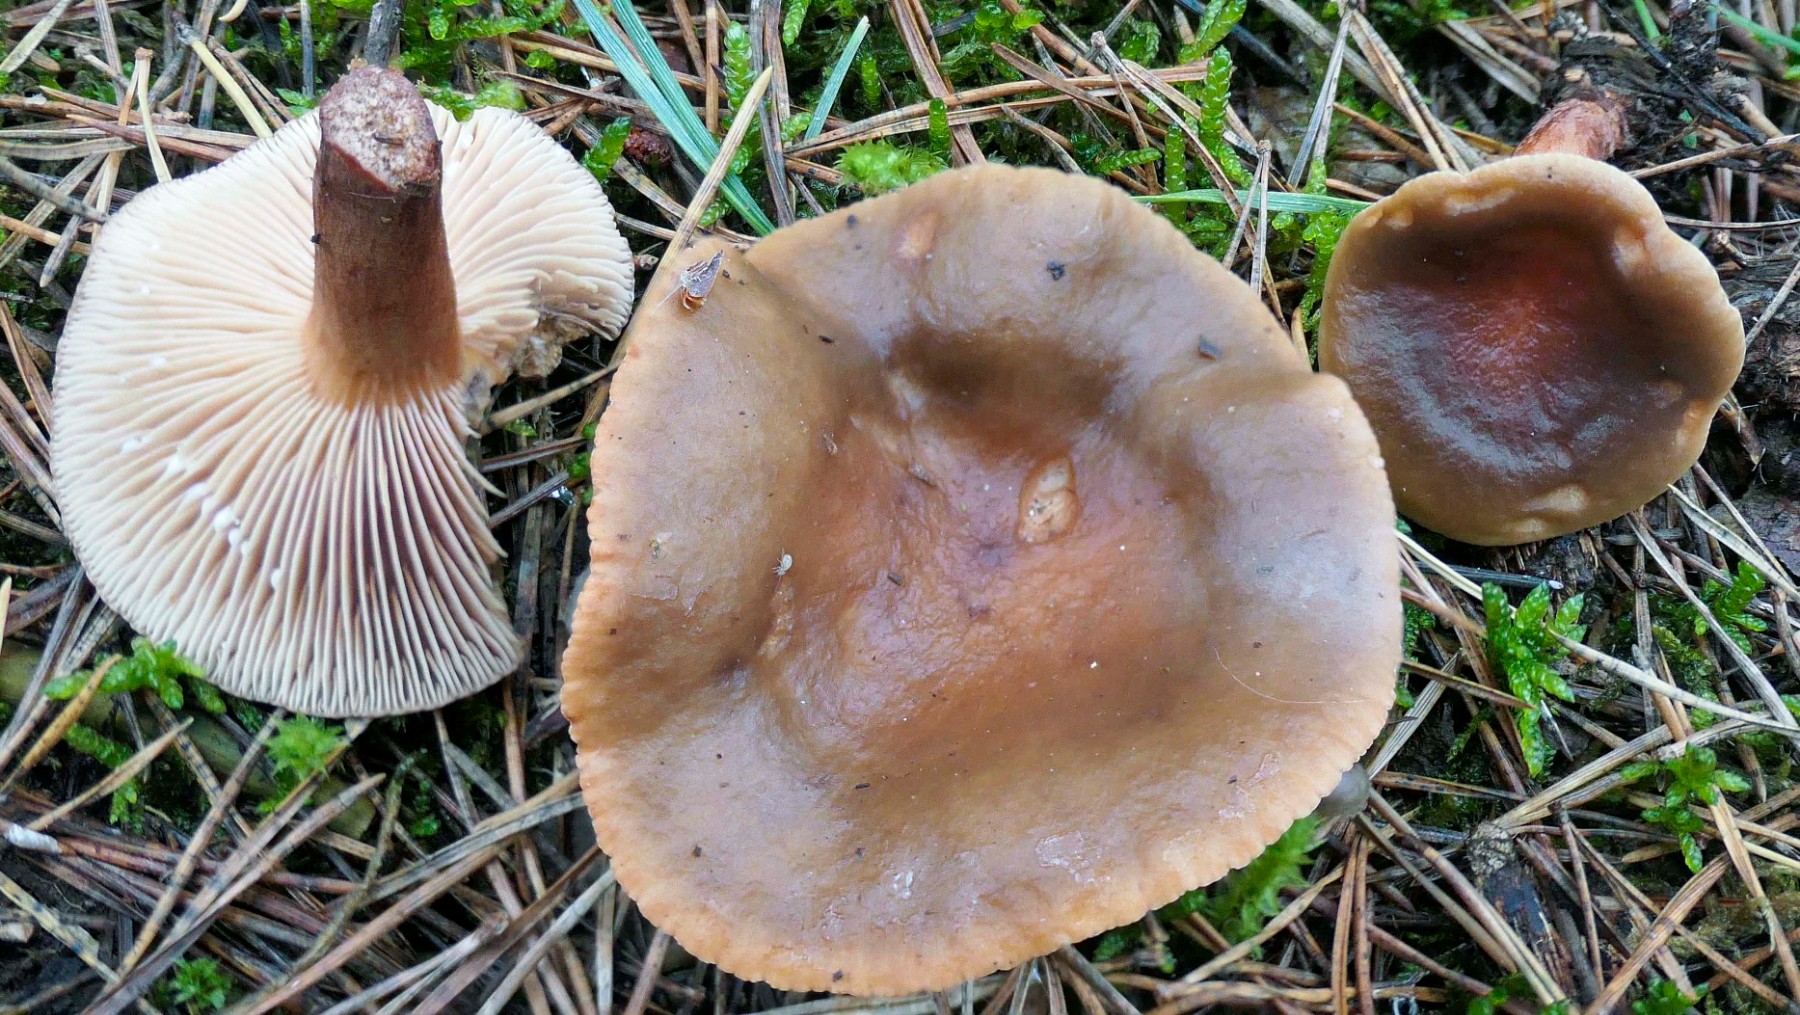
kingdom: Fungi
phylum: Basidiomycota
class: Agaricomycetes
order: Russulales
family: Russulaceae
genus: Lactarius
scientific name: Lactarius hepaticus
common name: leverbrun mælkehat
